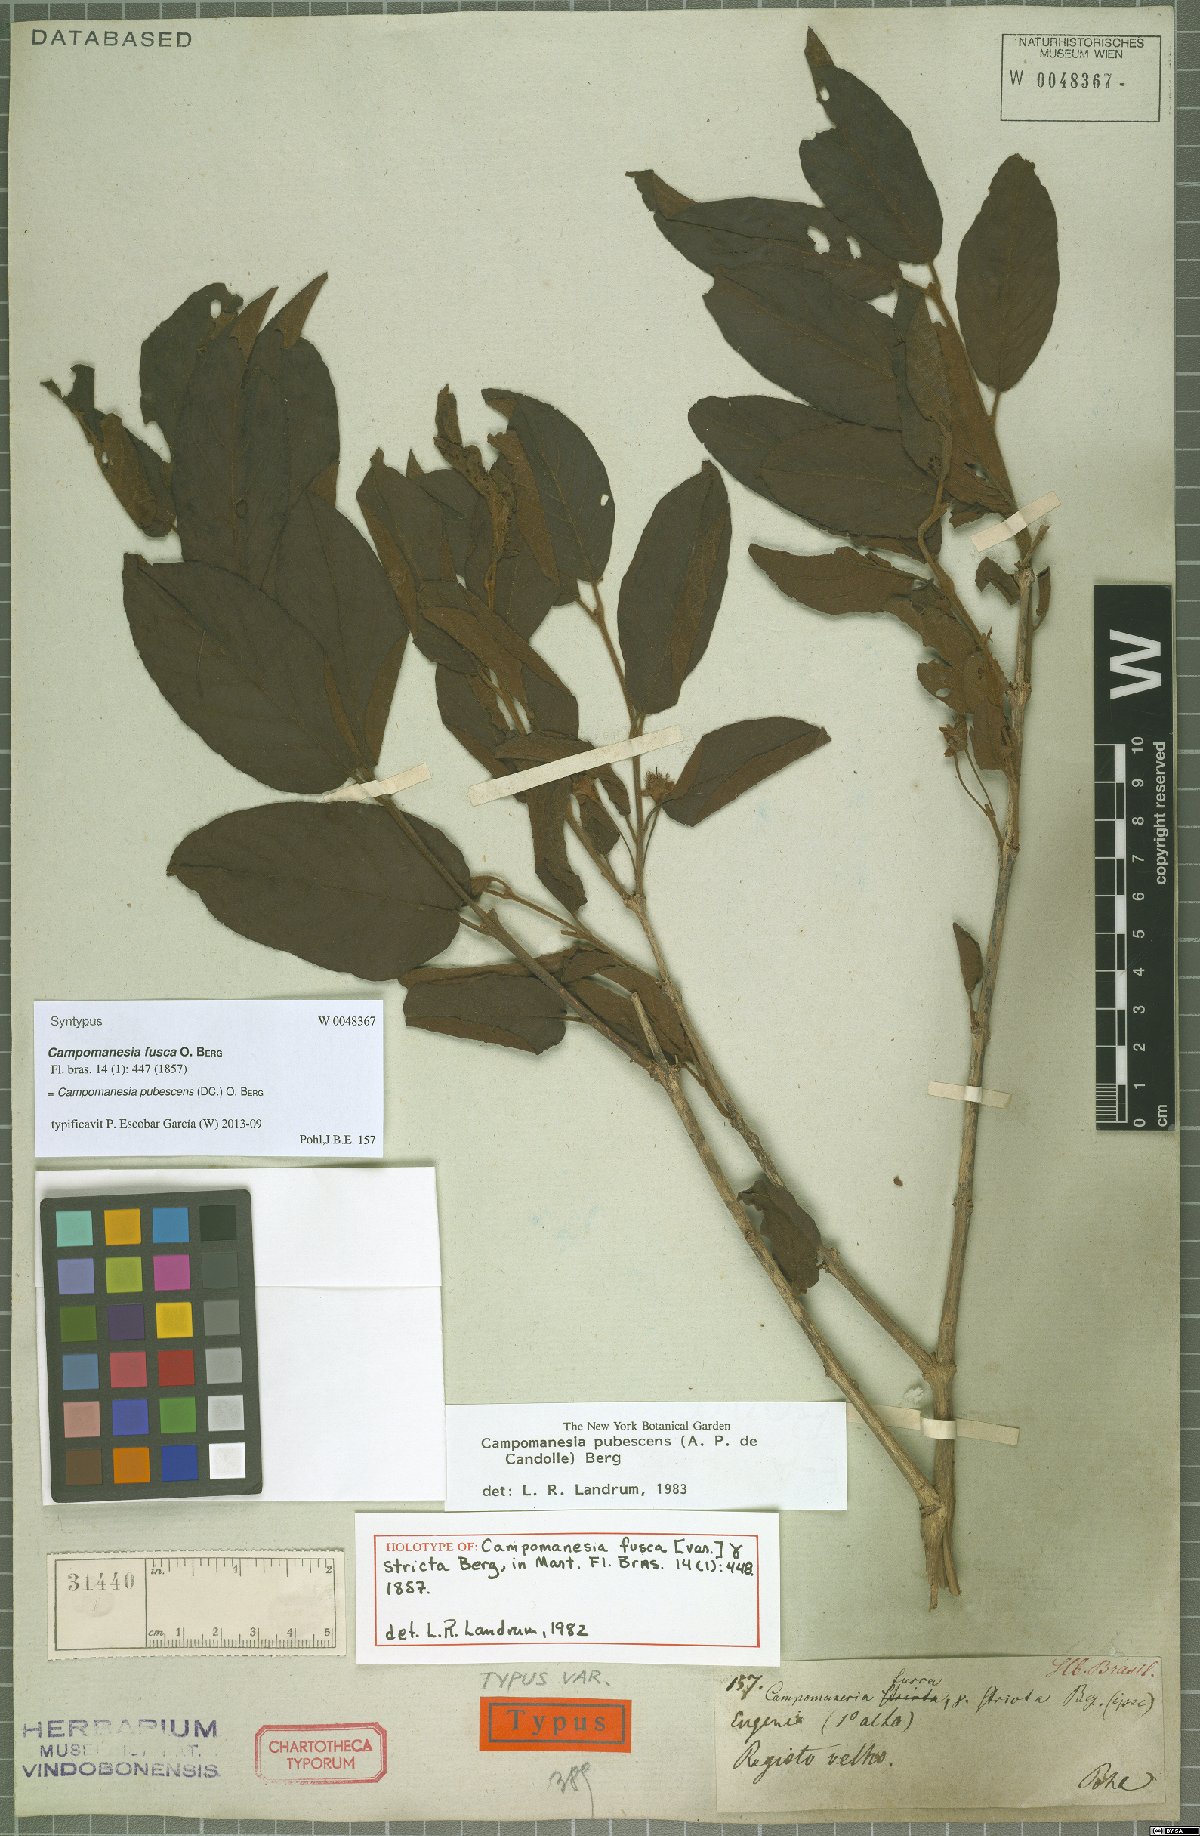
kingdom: Plantae
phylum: Tracheophyta
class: Magnoliopsida
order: Myrtales
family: Myrtaceae
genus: Campomanesia
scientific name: Campomanesia pubescens
